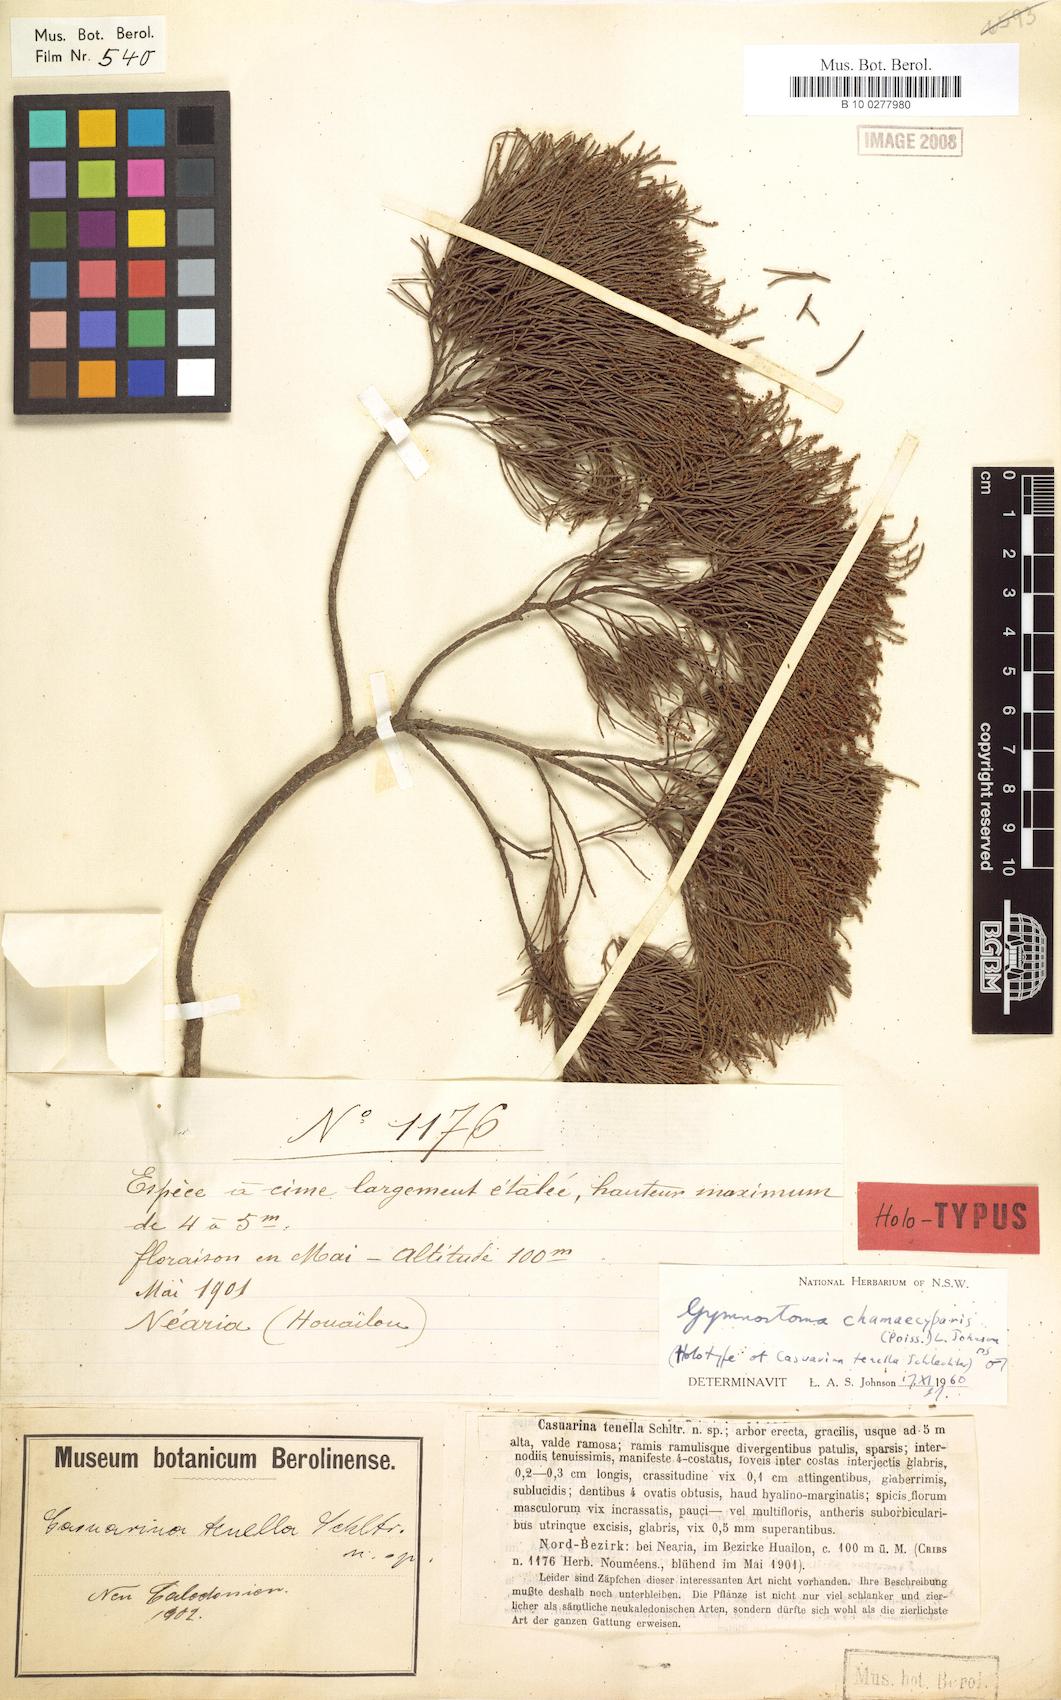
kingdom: Plantae
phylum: Tracheophyta
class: Magnoliopsida
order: Fagales
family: Casuarinaceae
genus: Gymnostoma
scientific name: Gymnostoma chamaecyparis
